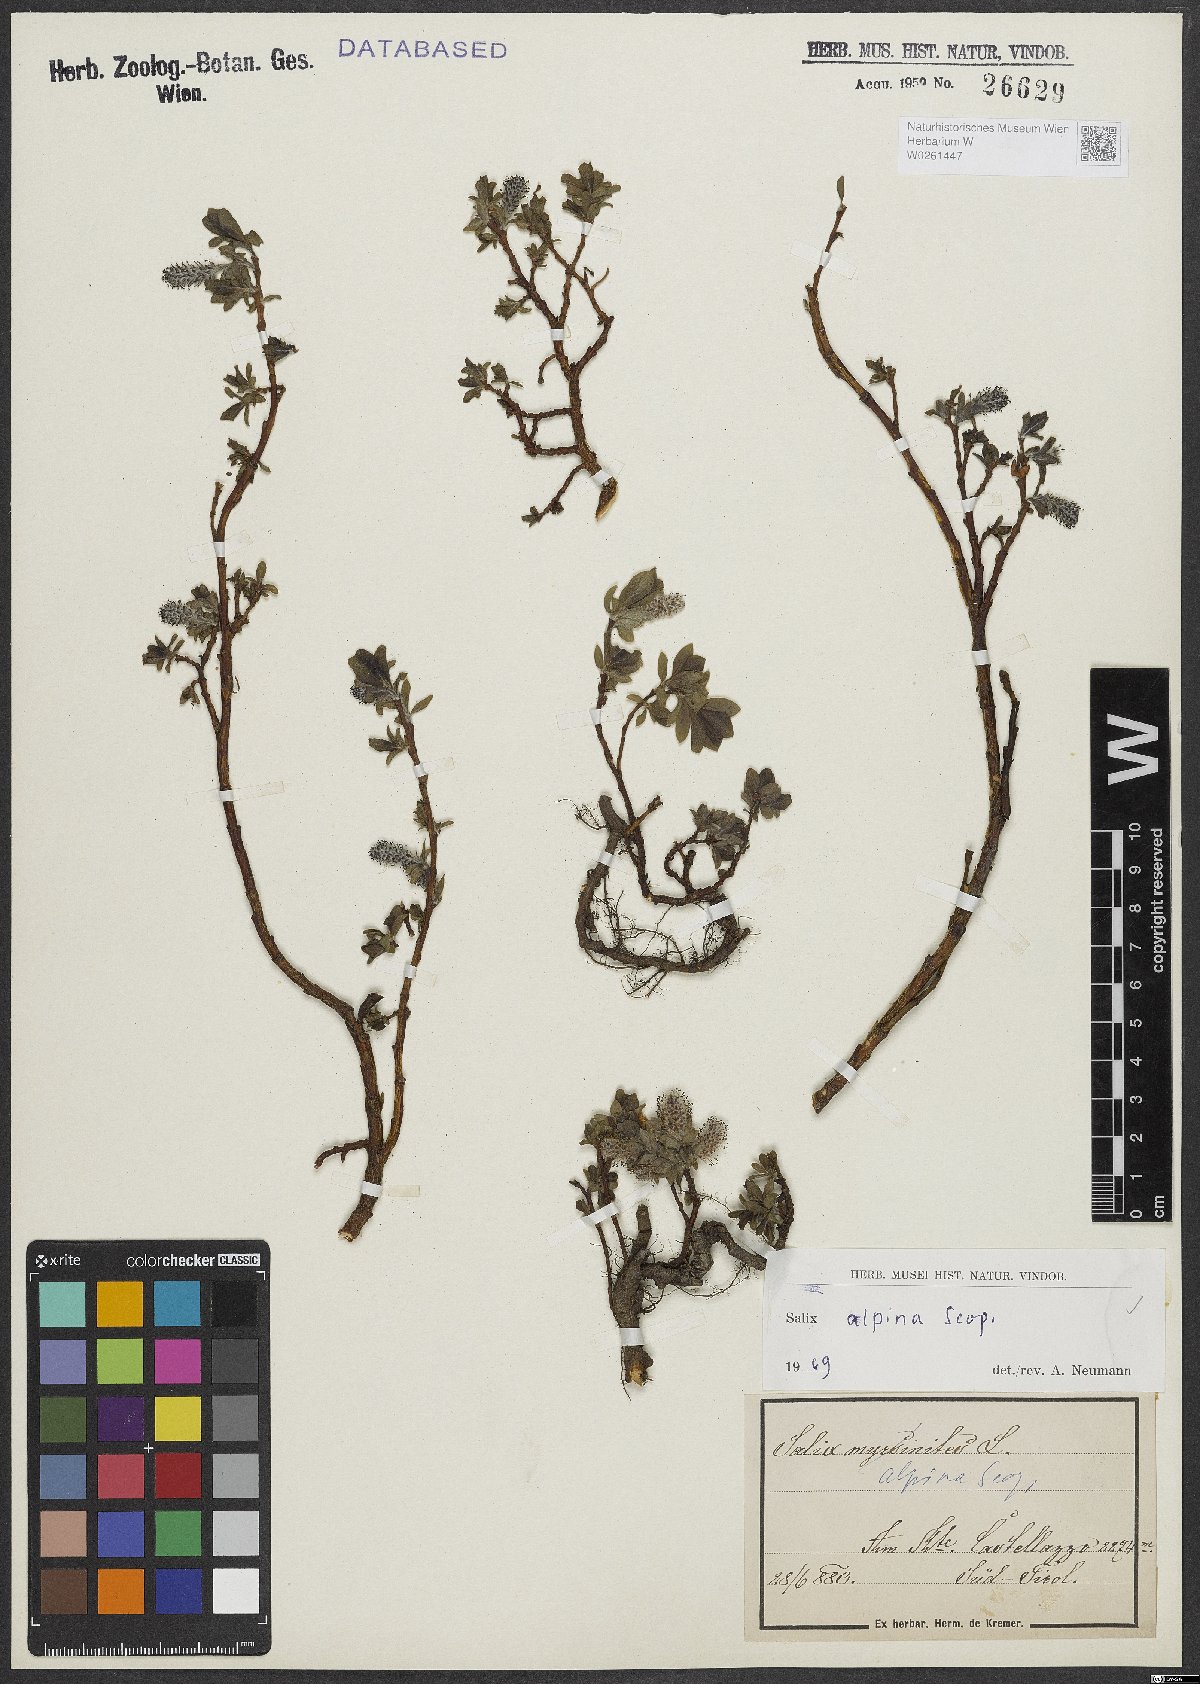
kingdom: Plantae
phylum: Tracheophyta
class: Magnoliopsida
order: Malpighiales
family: Salicaceae
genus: Salix
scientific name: Salix alpina
